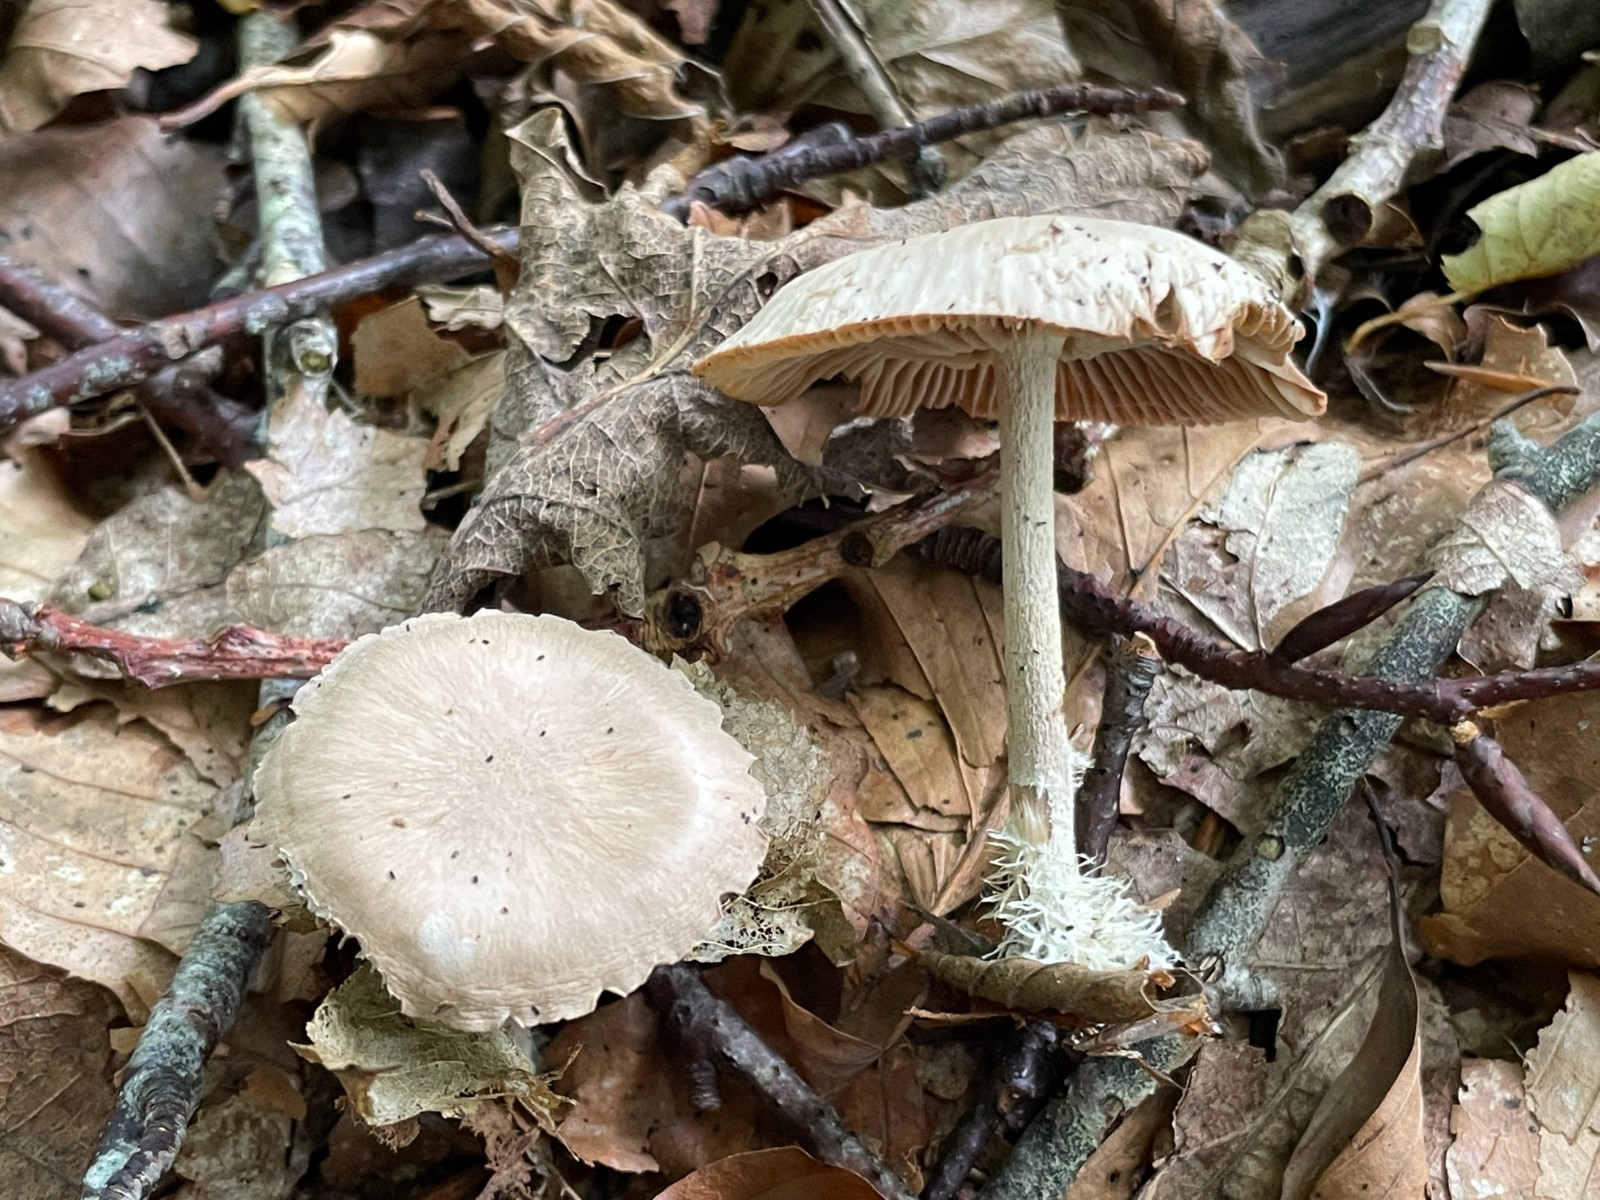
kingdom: Fungi
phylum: Basidiomycota
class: Agaricomycetes
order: Agaricales
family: Omphalotaceae
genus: Collybiopsis
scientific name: Collybiopsis peronata
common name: bestøvlet fladhat
